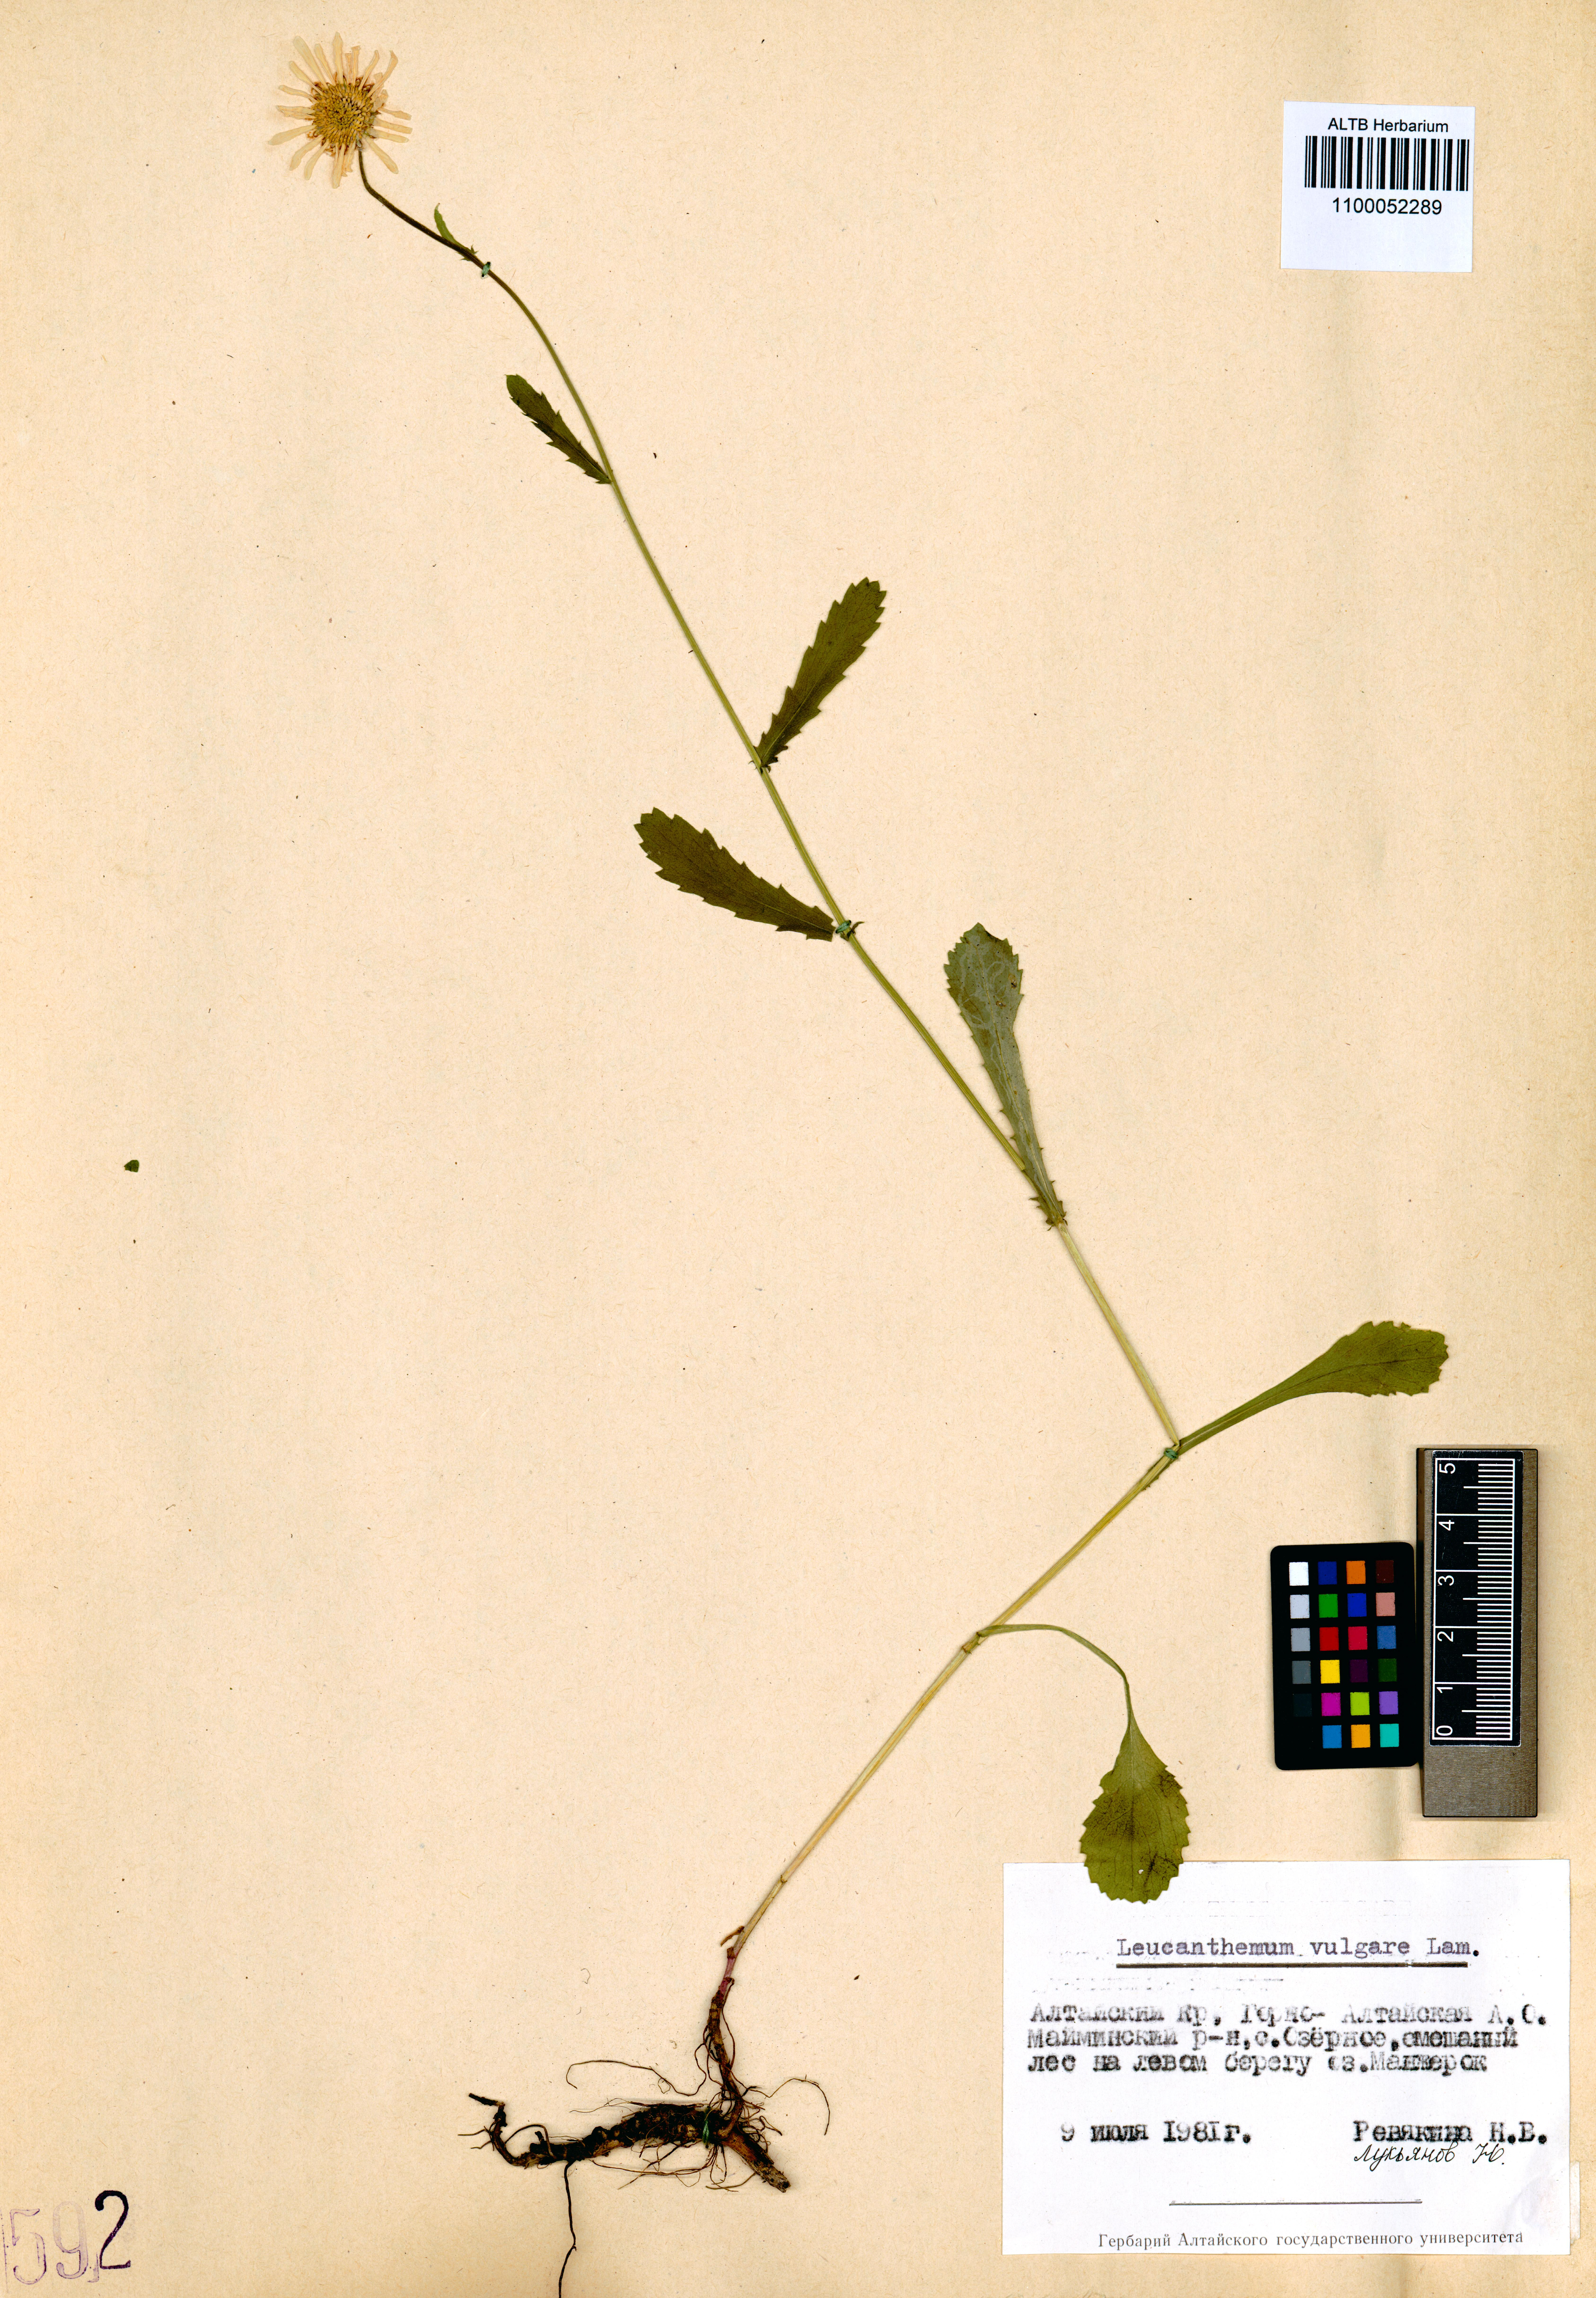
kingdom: Plantae
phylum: Tracheophyta
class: Magnoliopsida
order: Asterales
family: Asteraceae
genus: Leucanthemum
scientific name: Leucanthemum vulgare
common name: Oxeye daisy
